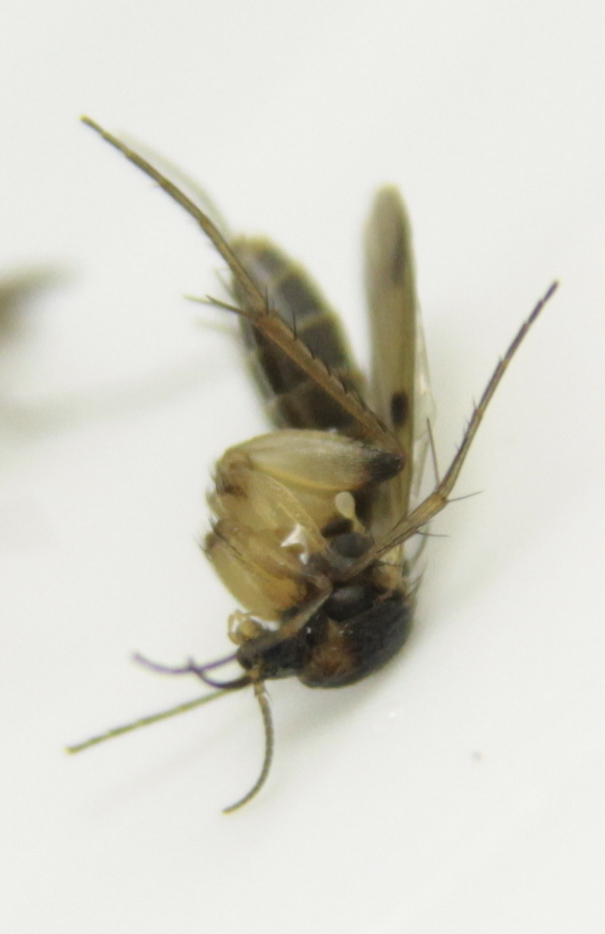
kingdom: Animalia
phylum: Arthropoda
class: Insecta
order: Diptera
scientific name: Diptera
